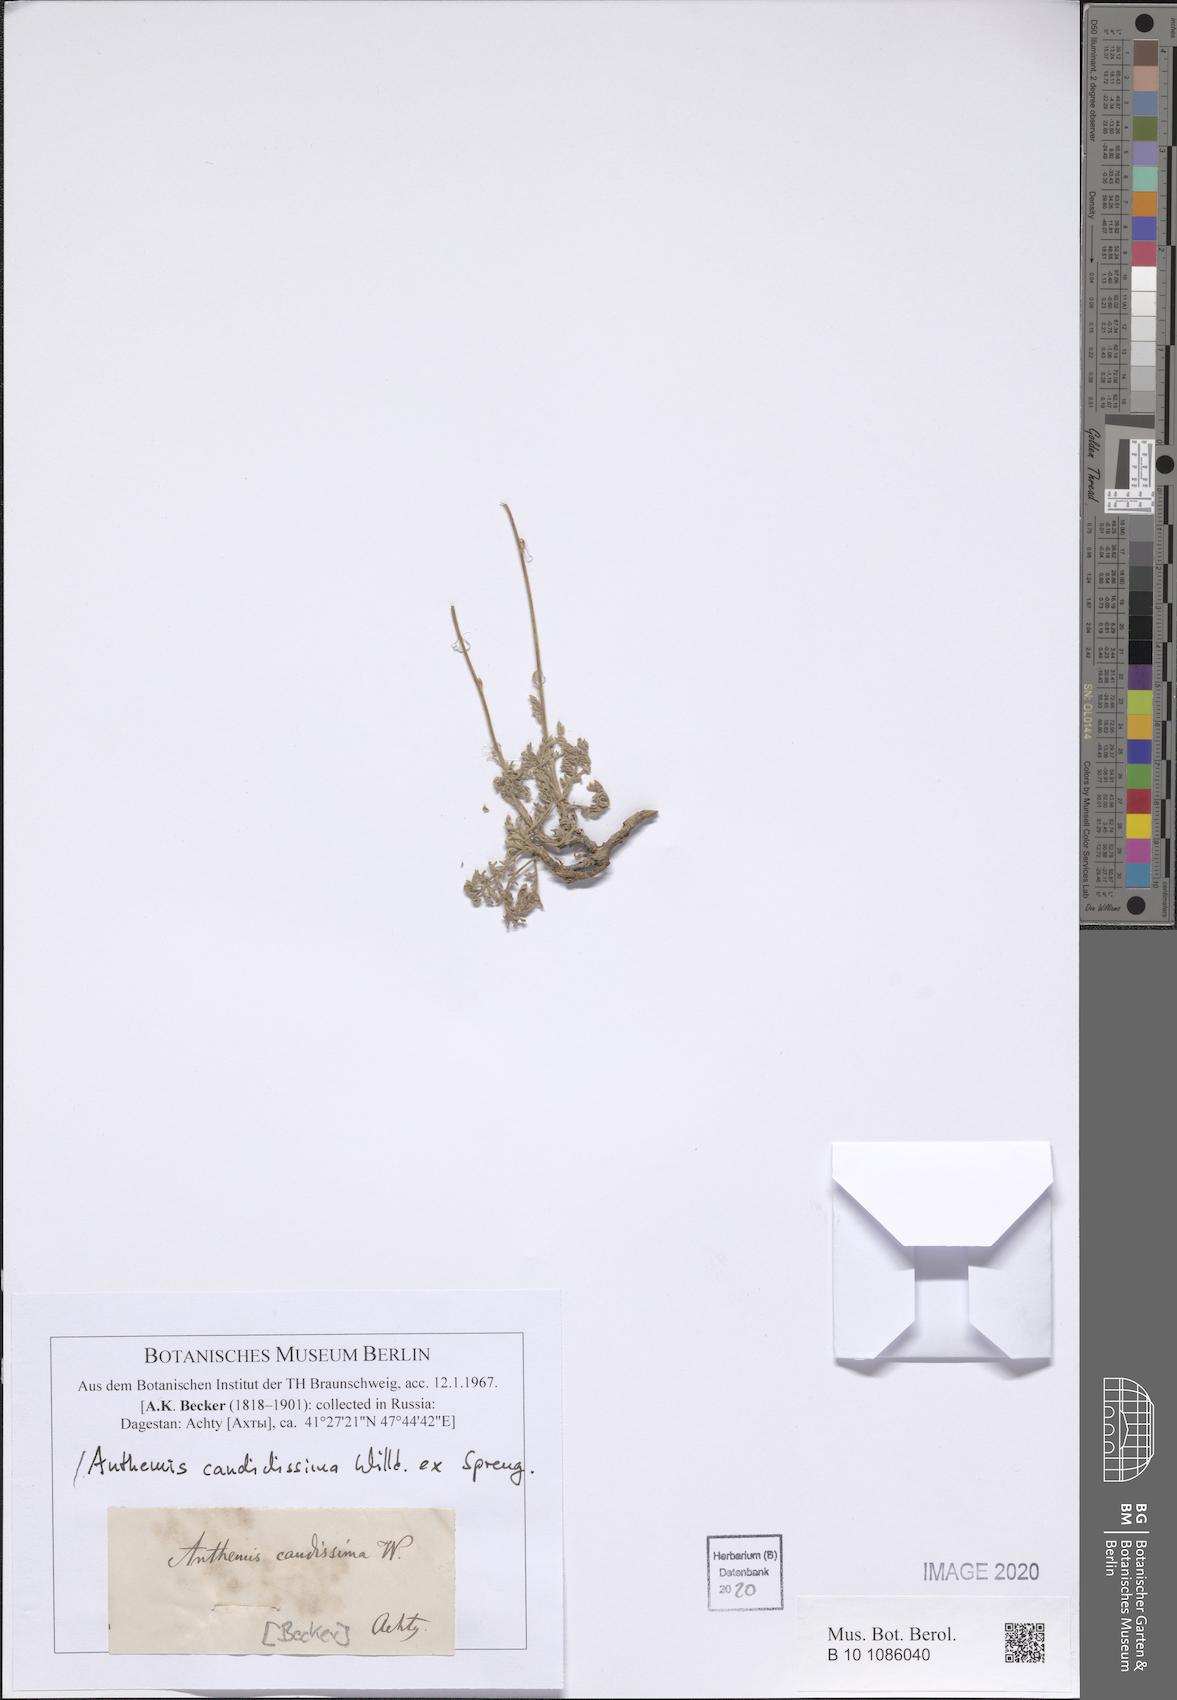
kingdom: Plantae
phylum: Tracheophyta
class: Magnoliopsida
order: Asterales
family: Asteraceae
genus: Anthemis
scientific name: Anthemis candidissima
